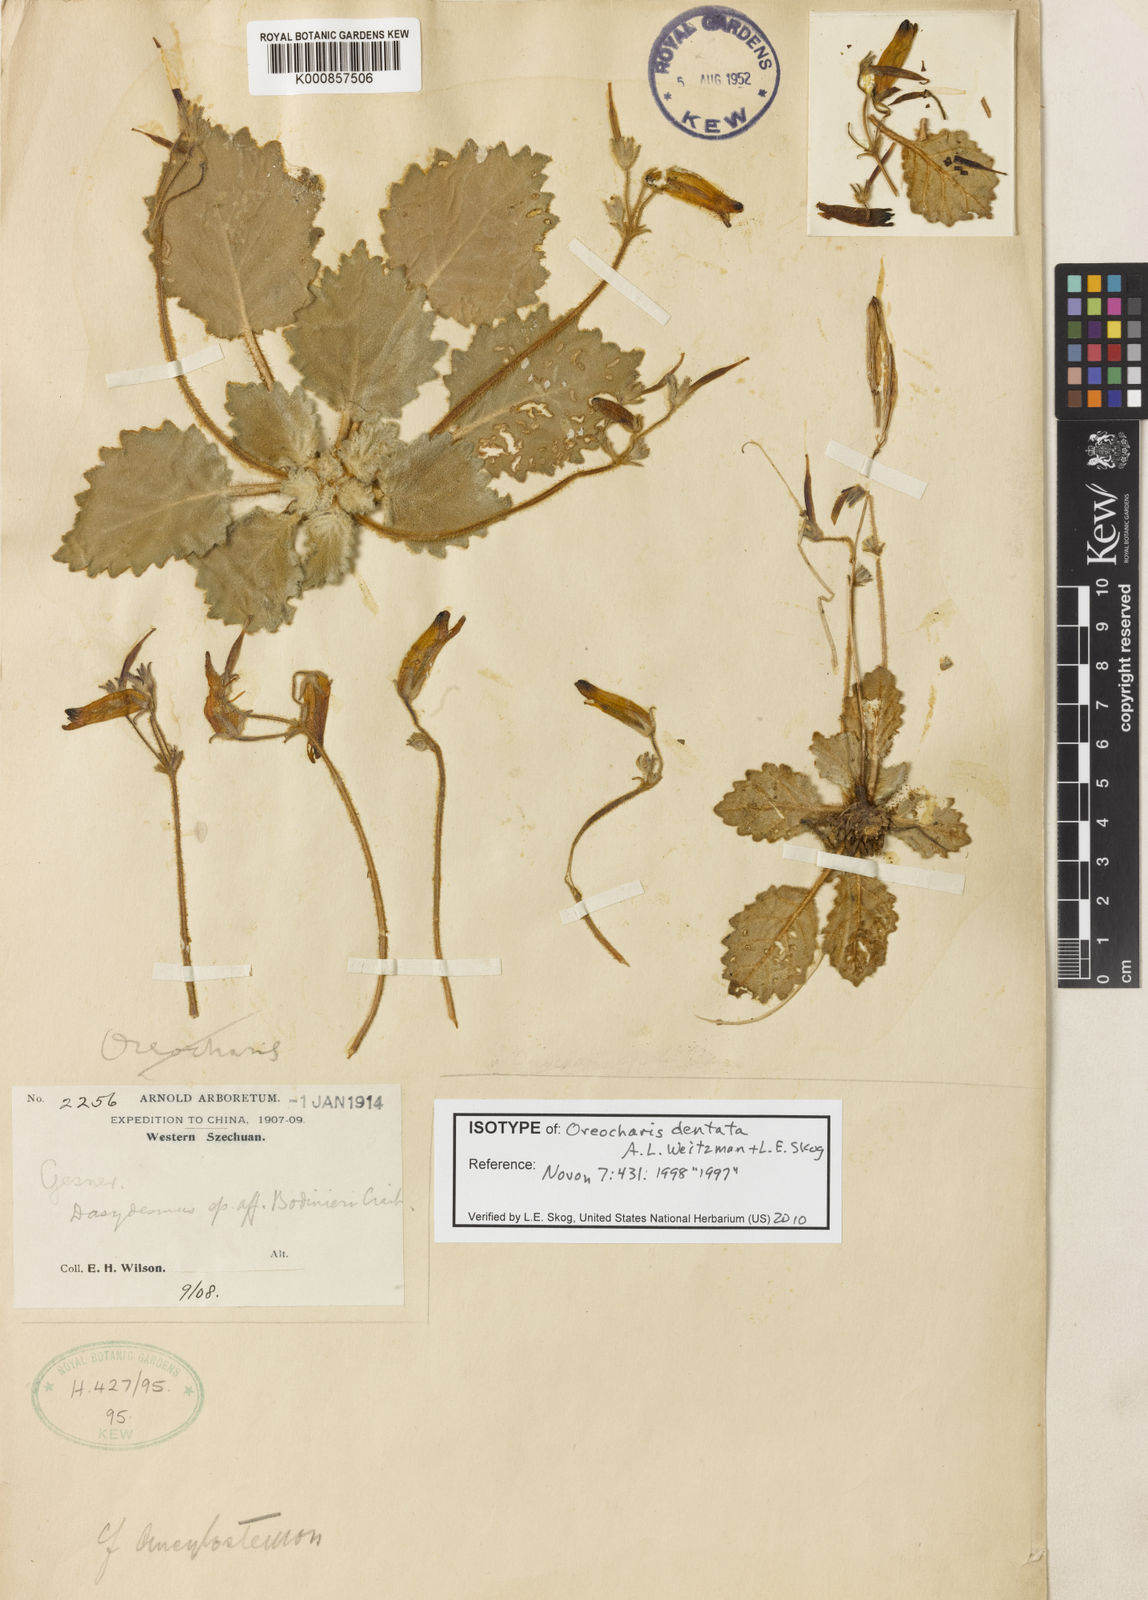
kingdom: Plantae
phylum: Tracheophyta
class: Magnoliopsida
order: Lamiales
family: Gesneriaceae
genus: Oreocharis
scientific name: Oreocharis dentata
